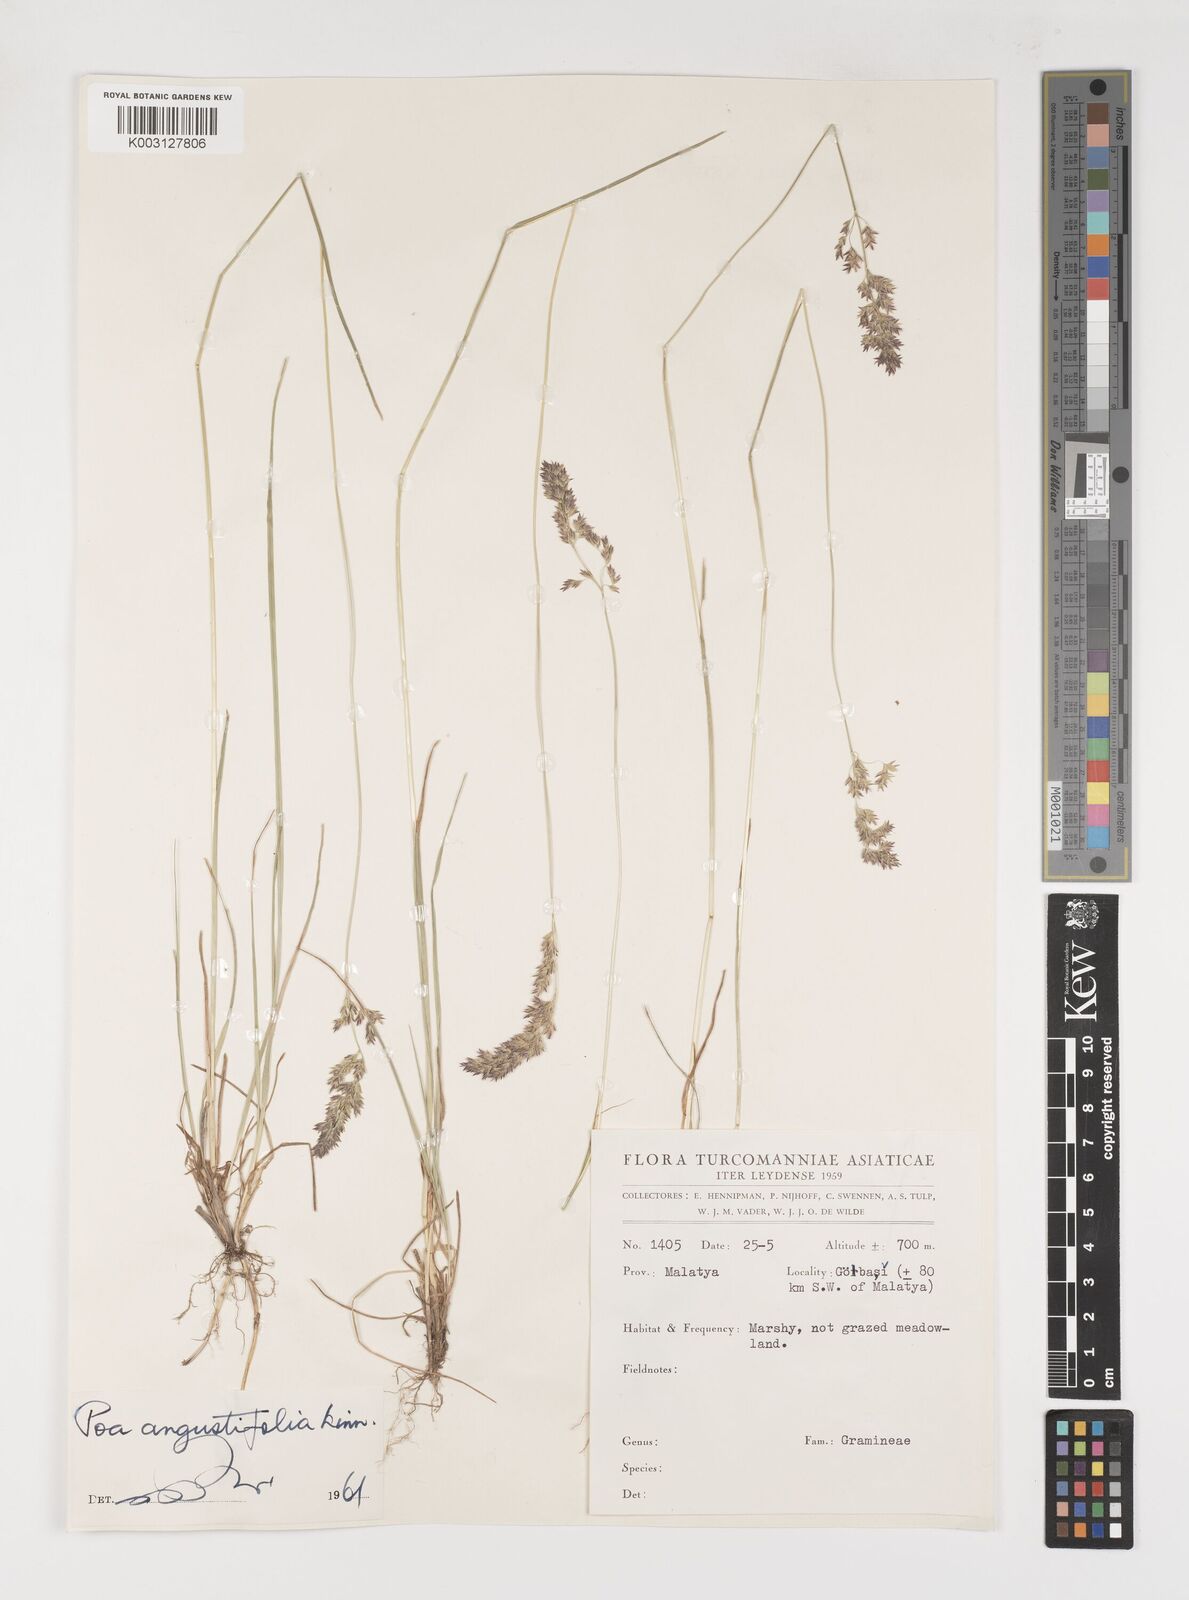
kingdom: Plantae
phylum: Tracheophyta
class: Liliopsida
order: Poales
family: Poaceae
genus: Poa
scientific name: Poa angustifolia
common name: Narrow-leaved meadow-grass
